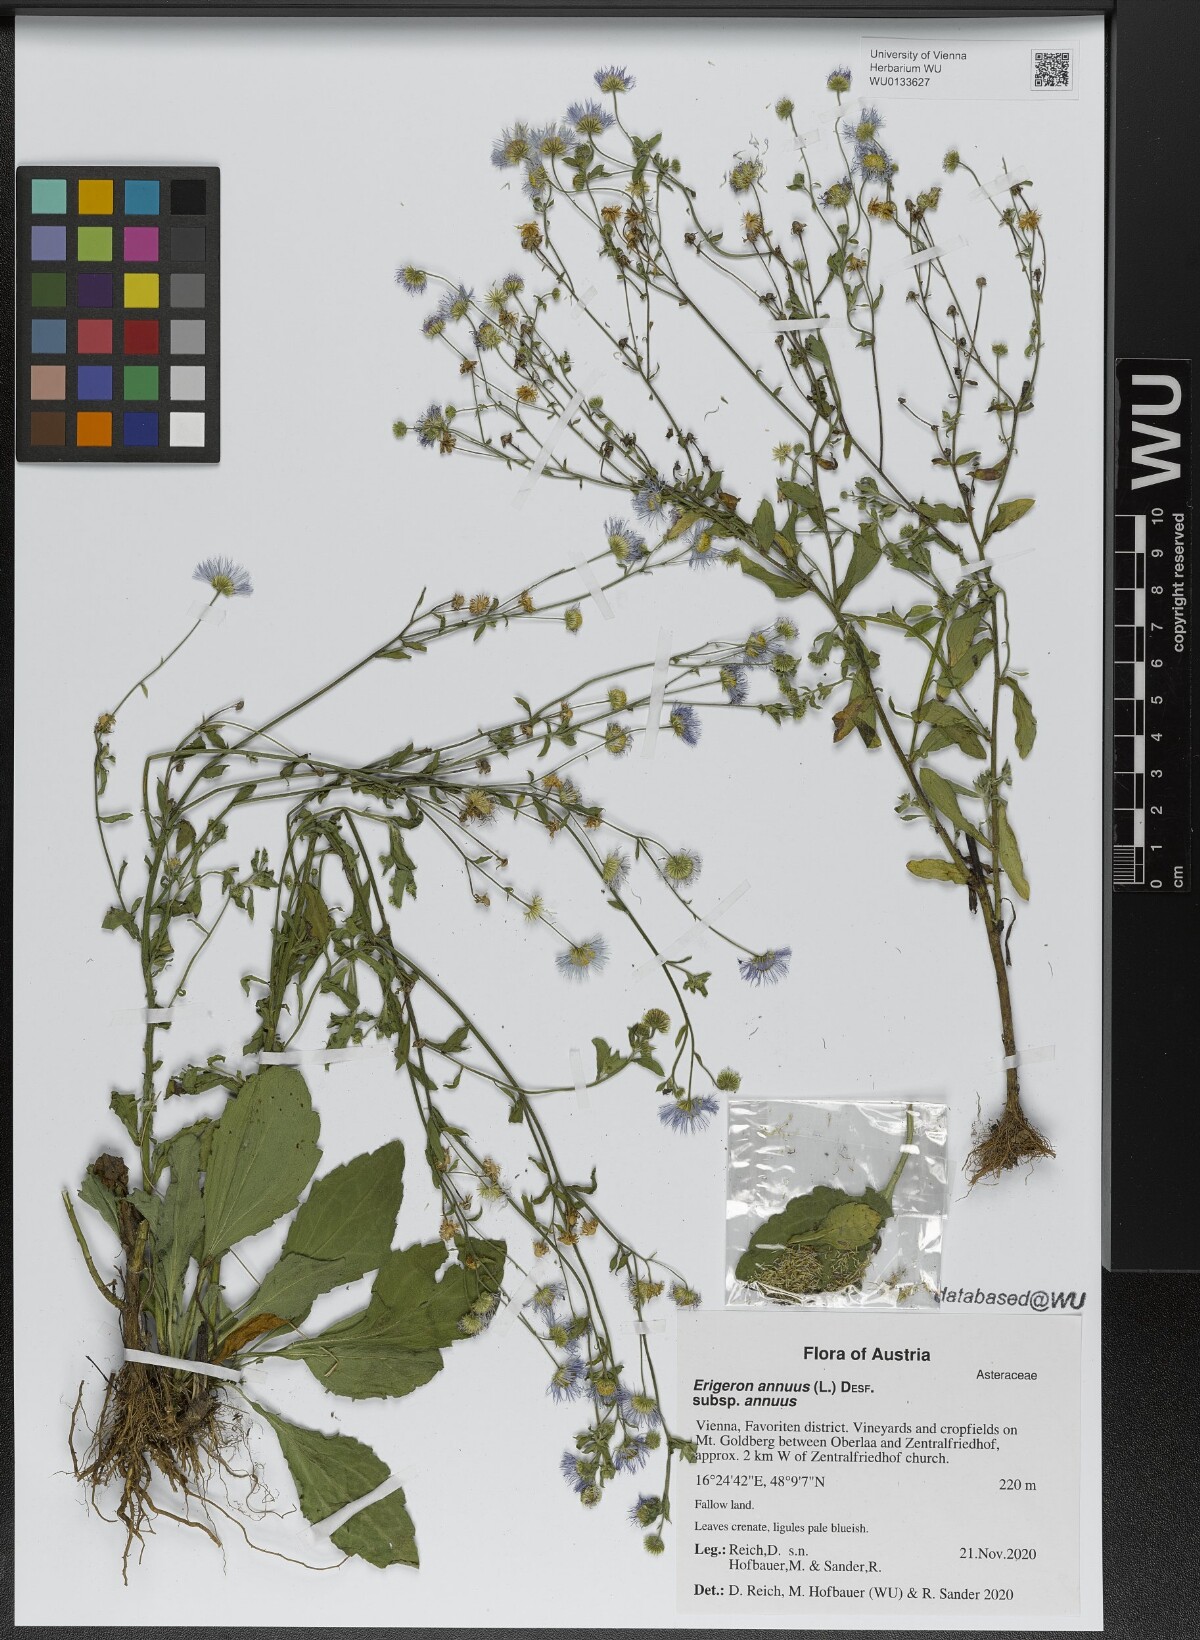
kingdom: Plantae
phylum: Tracheophyta
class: Magnoliopsida
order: Asterales
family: Asteraceae
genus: Erigeron
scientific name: Erigeron annuus
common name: Tall fleabane
